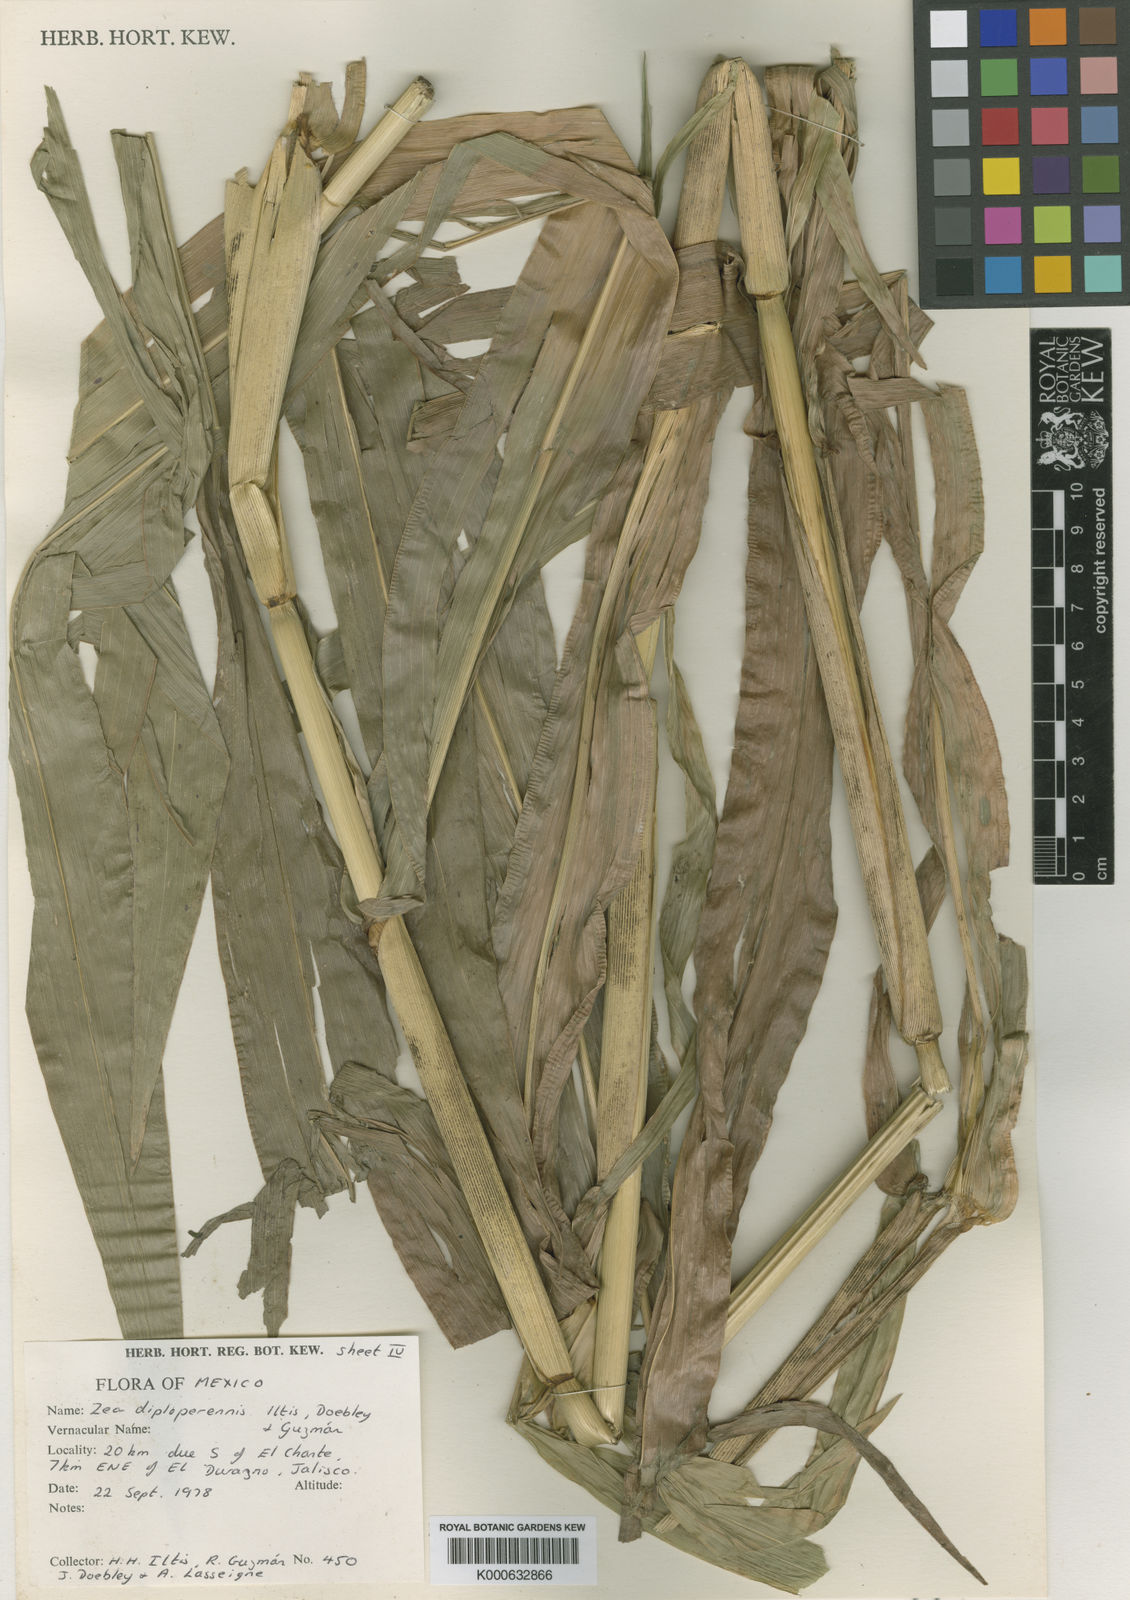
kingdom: Plantae
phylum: Tracheophyta
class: Liliopsida
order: Poales
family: Poaceae
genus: Zea
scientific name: Zea
